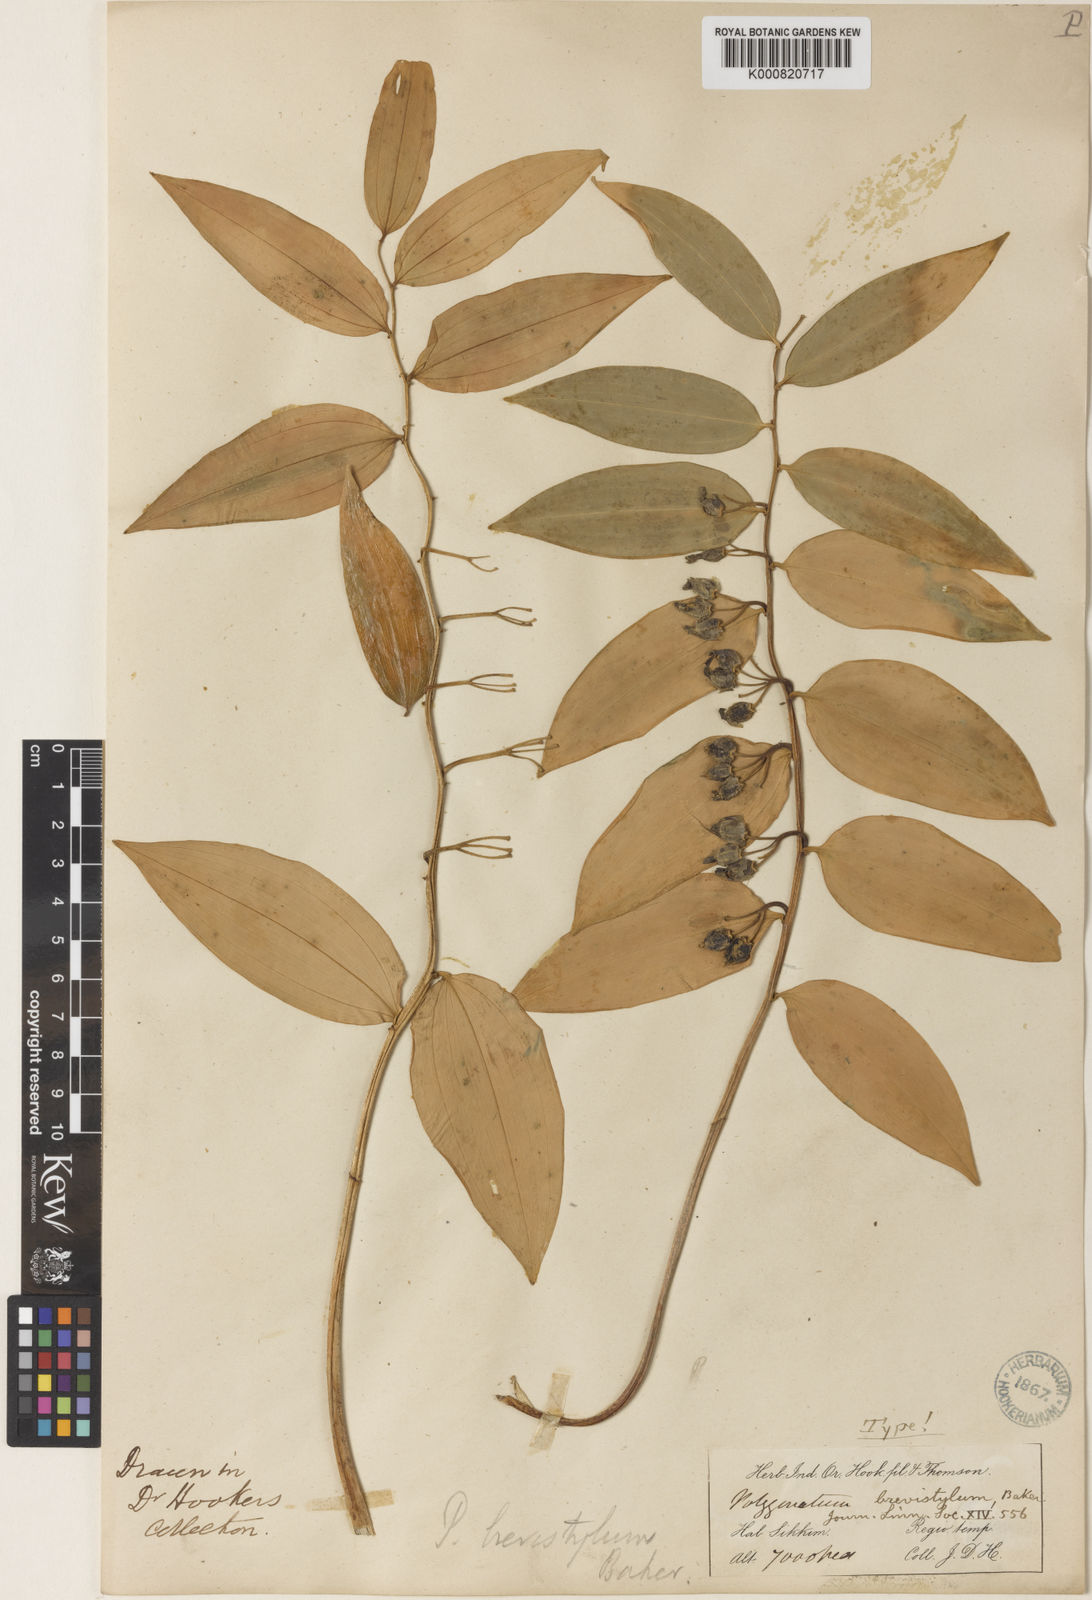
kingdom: Plantae
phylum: Tracheophyta
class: Liliopsida
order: Asparagales
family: Asparagaceae
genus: Polygonatum
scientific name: Polygonatum brevistylum
